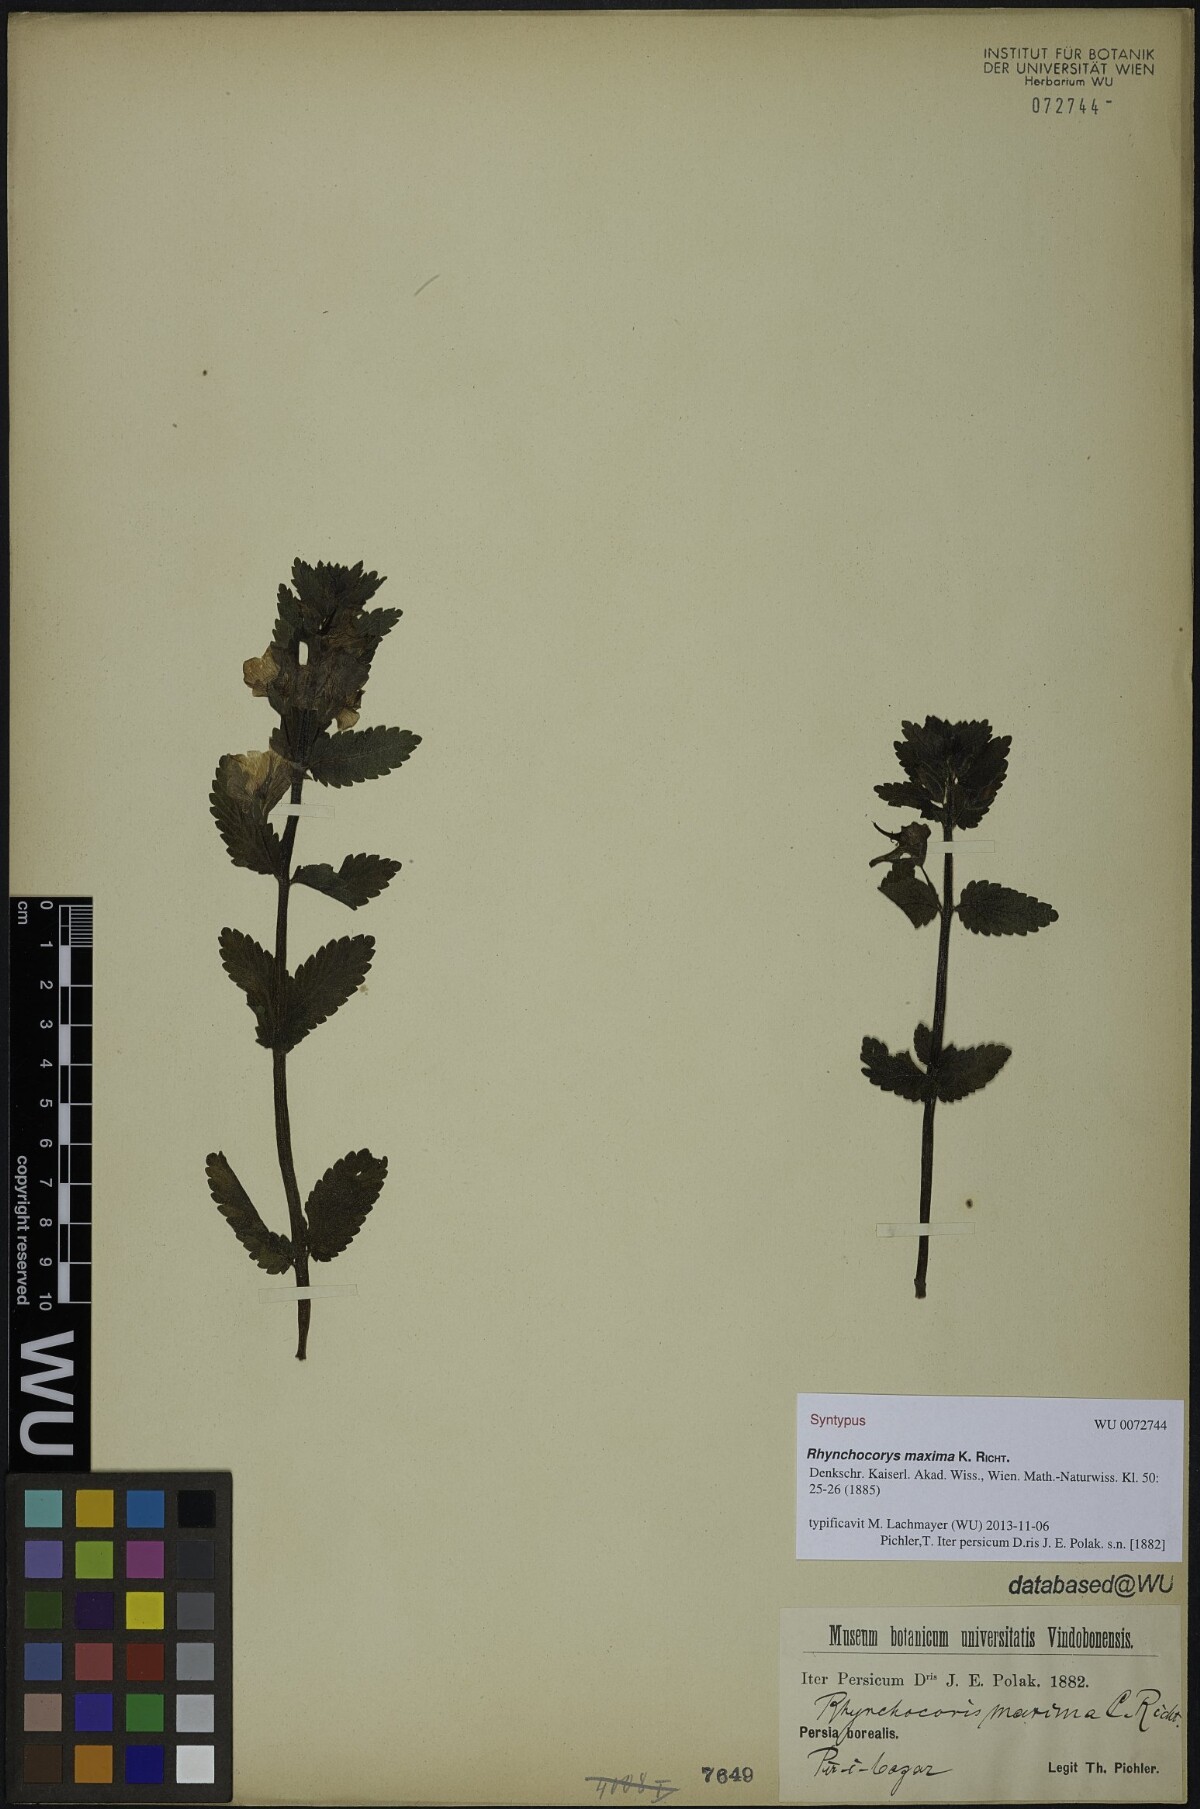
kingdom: Plantae
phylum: Tracheophyta
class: Magnoliopsida
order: Lamiales
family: Scrophulariaceae
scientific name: Scrophulariaceae
